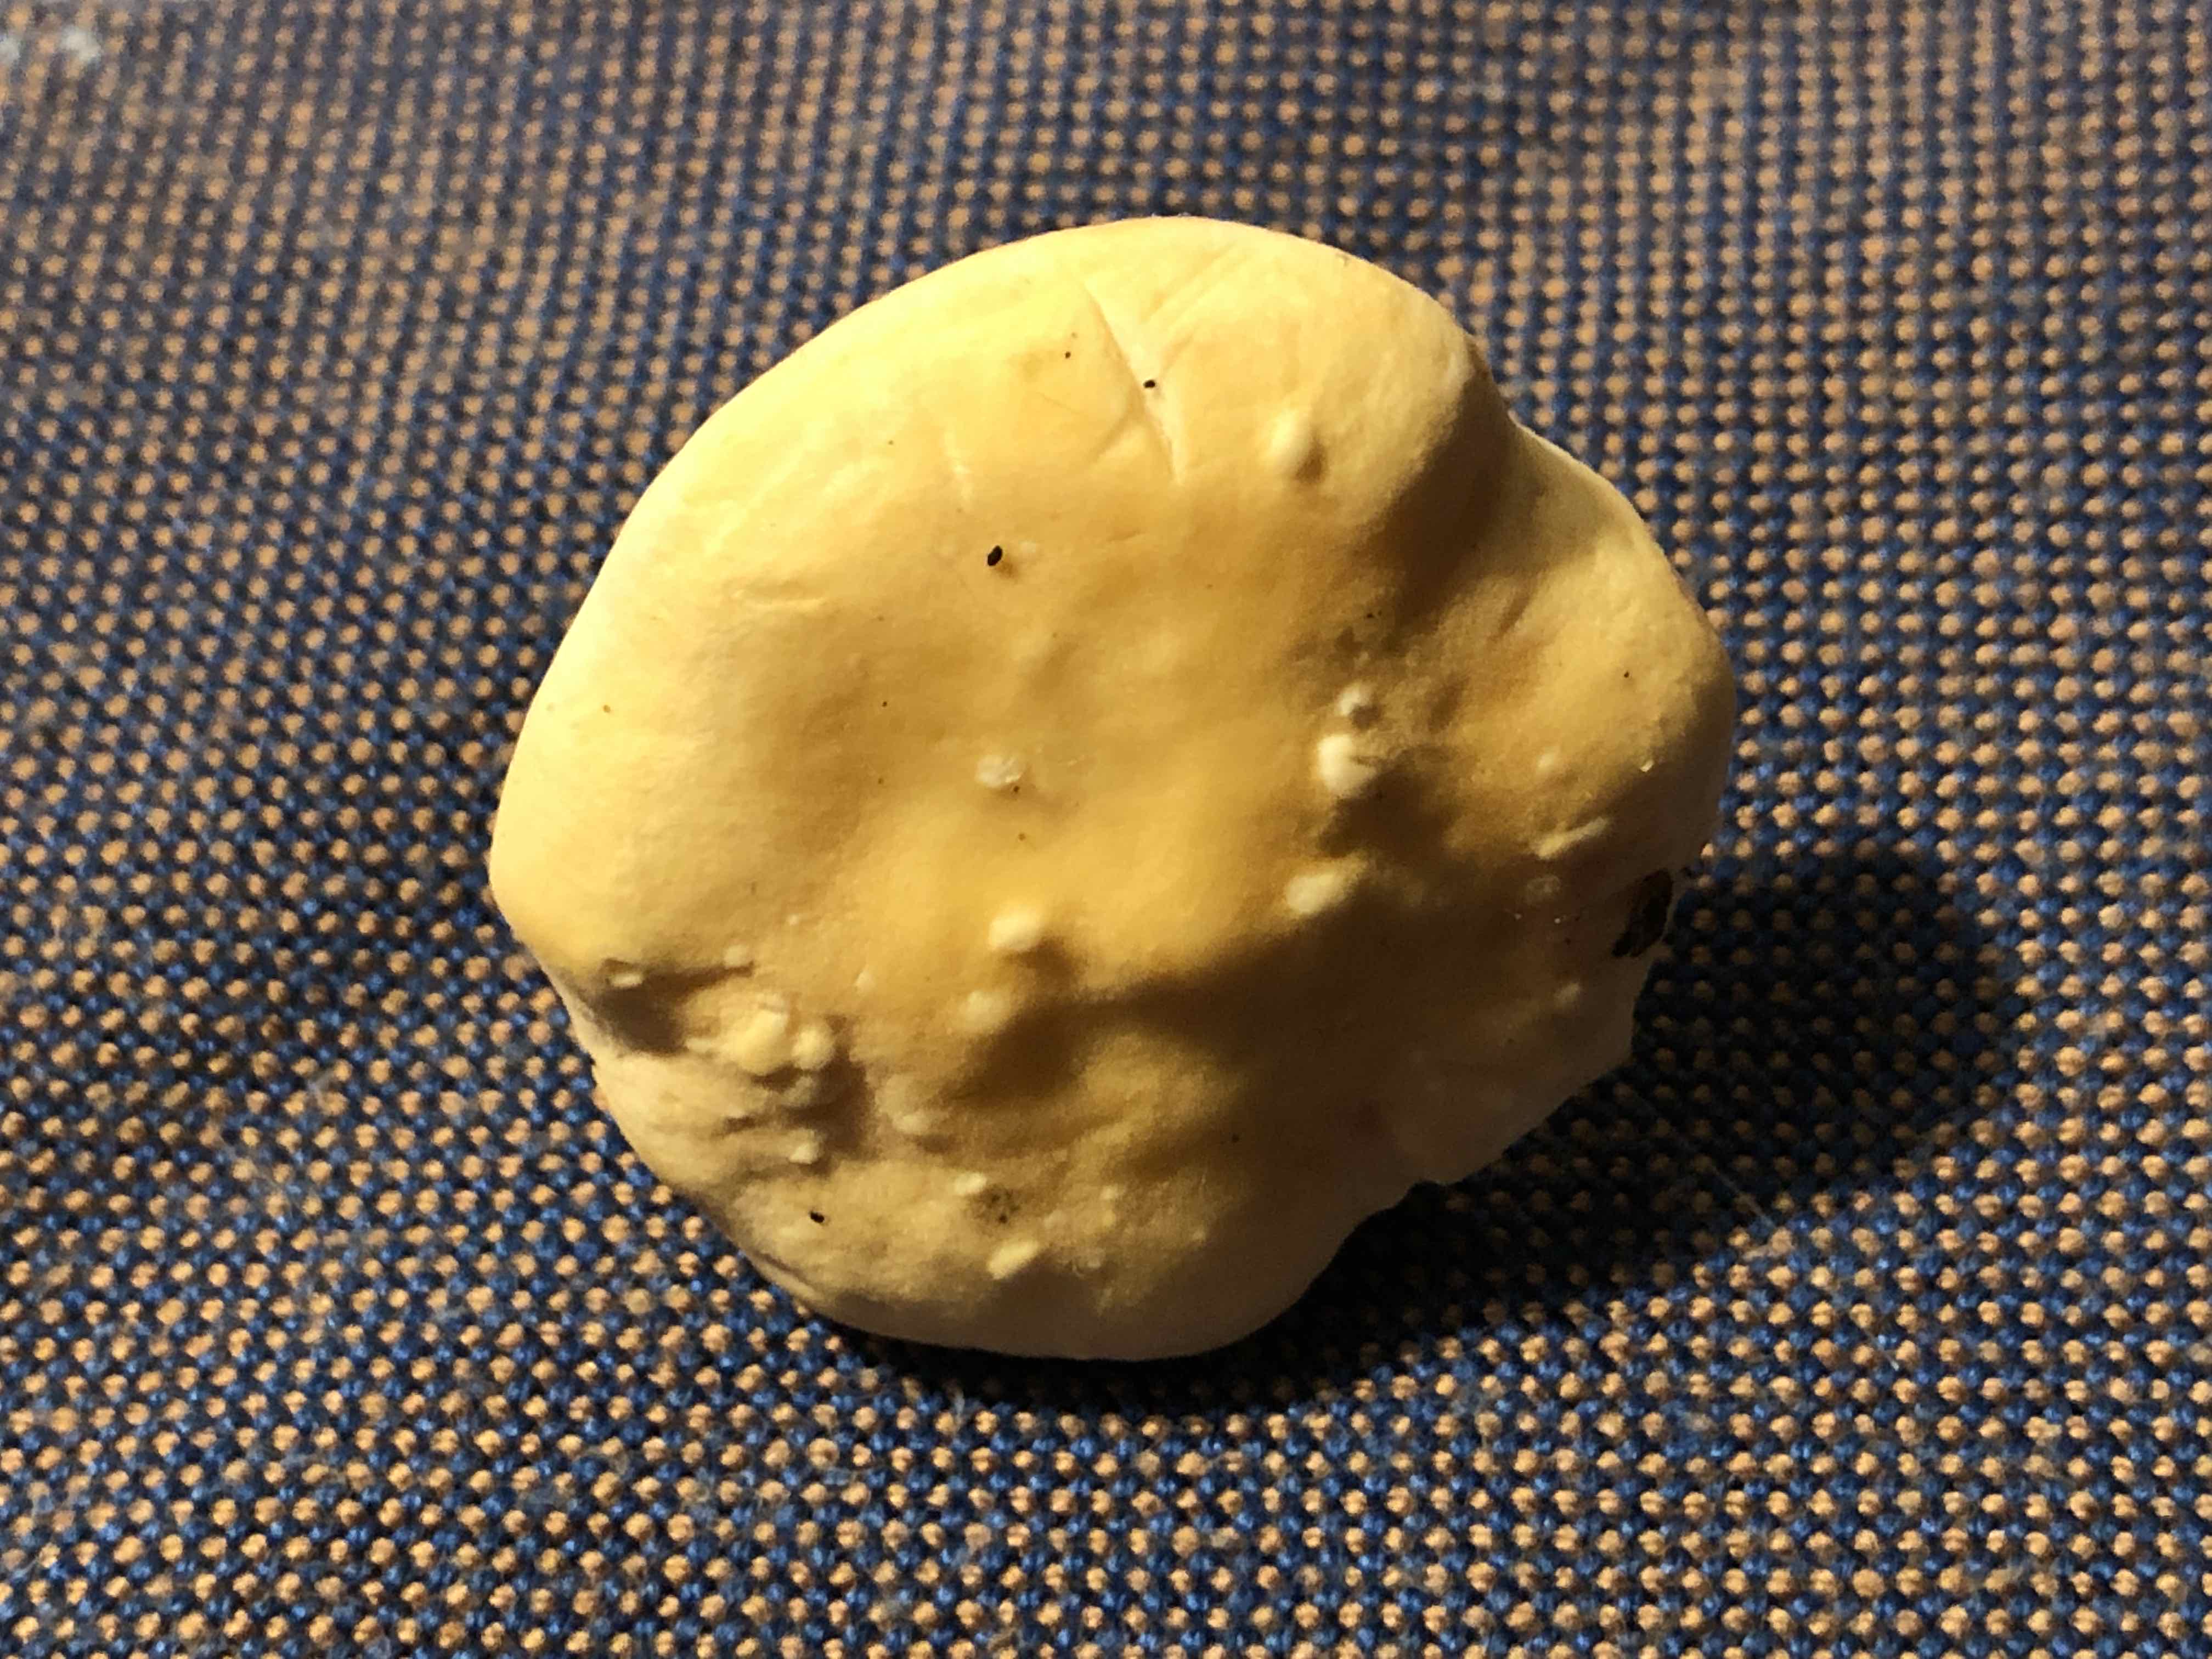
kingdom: Fungi
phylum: Basidiomycota
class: Agaricomycetes
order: Cantharellales
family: Hydnaceae
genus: Hydnum
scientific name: Hydnum repandum
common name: almindelig pigsvamp
